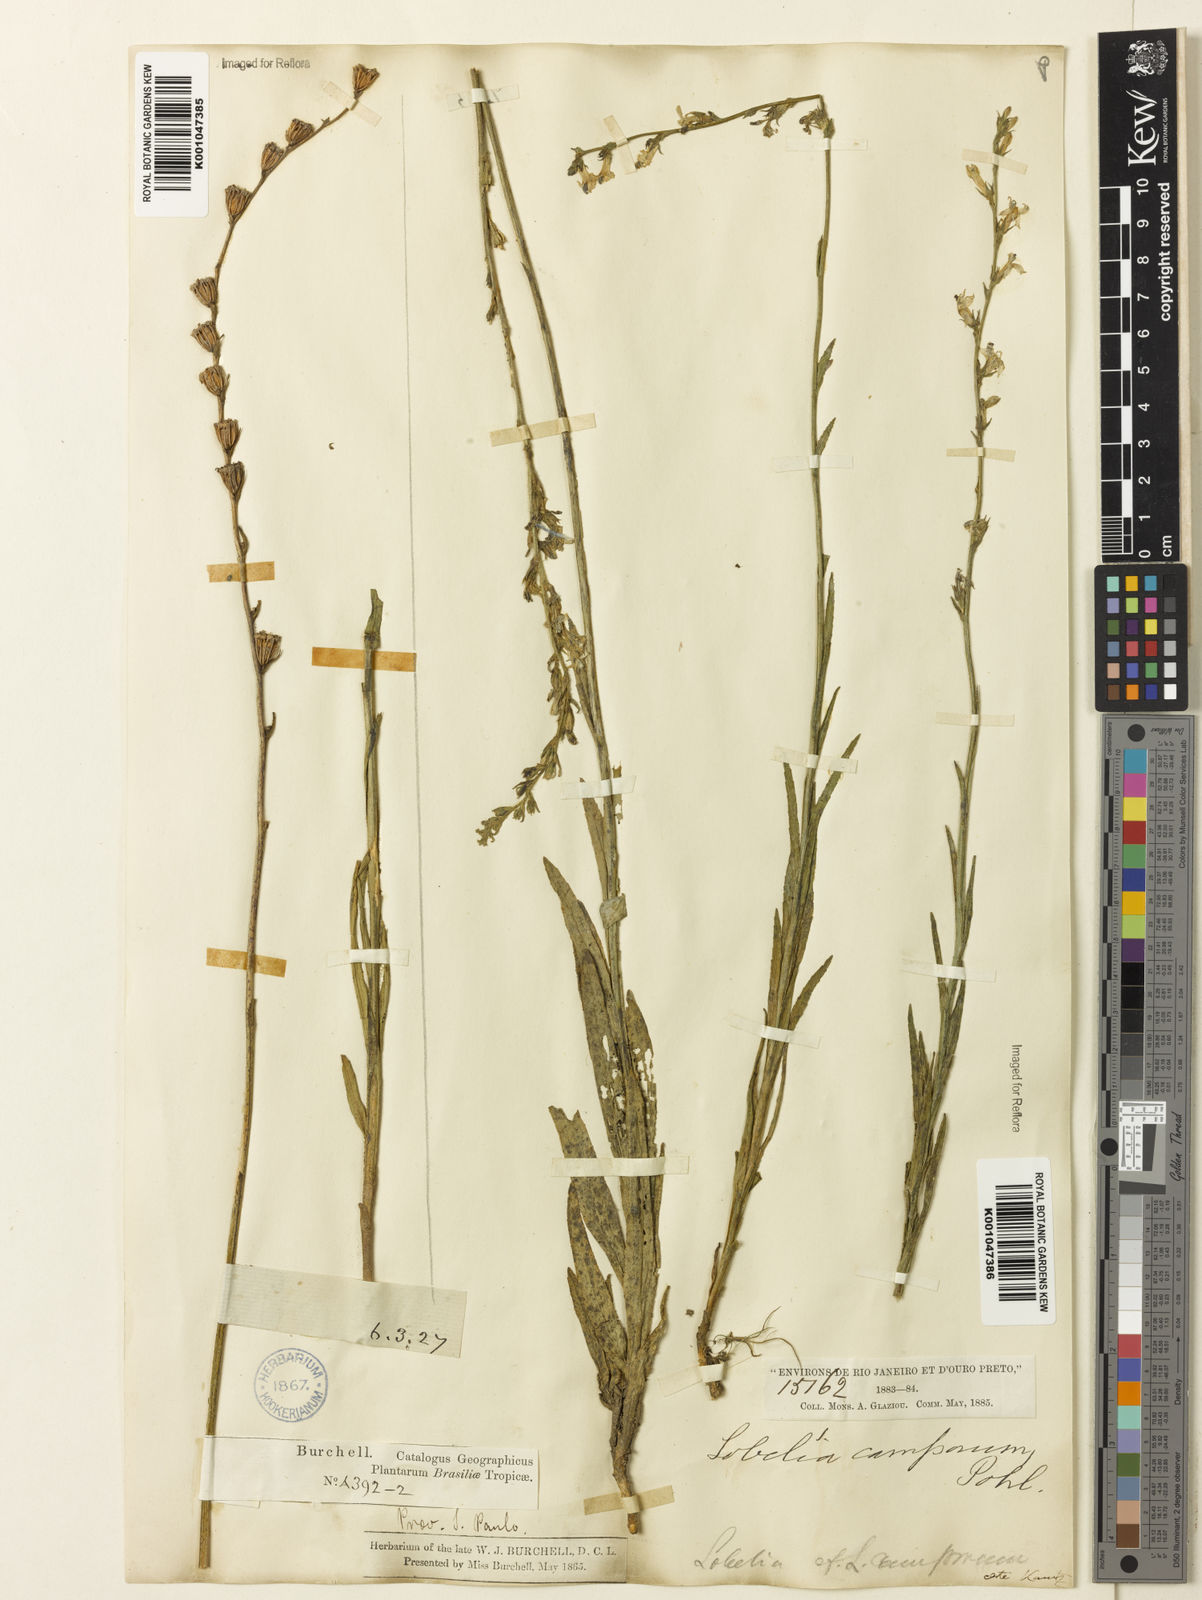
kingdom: Plantae
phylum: Tracheophyta
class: Magnoliopsida
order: Asterales
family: Campanulaceae
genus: Lobelia
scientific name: Lobelia camporum
